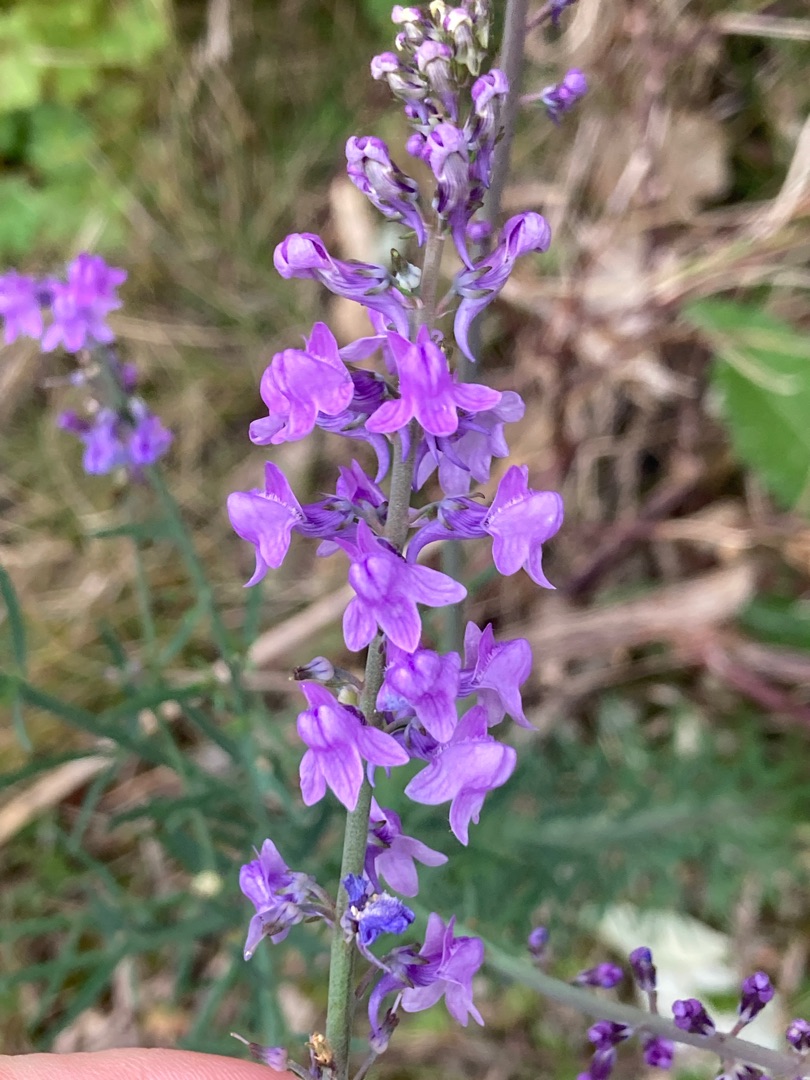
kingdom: Plantae
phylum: Tracheophyta
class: Magnoliopsida
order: Lamiales
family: Plantaginaceae
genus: Linaria
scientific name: Linaria purpurea
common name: Purpur-torskemund
